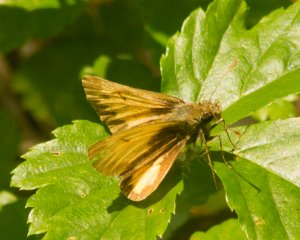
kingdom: Animalia
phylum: Arthropoda
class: Insecta
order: Lepidoptera
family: Hesperiidae
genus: Lon
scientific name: Lon hobomok
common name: Hobomok Skipper
